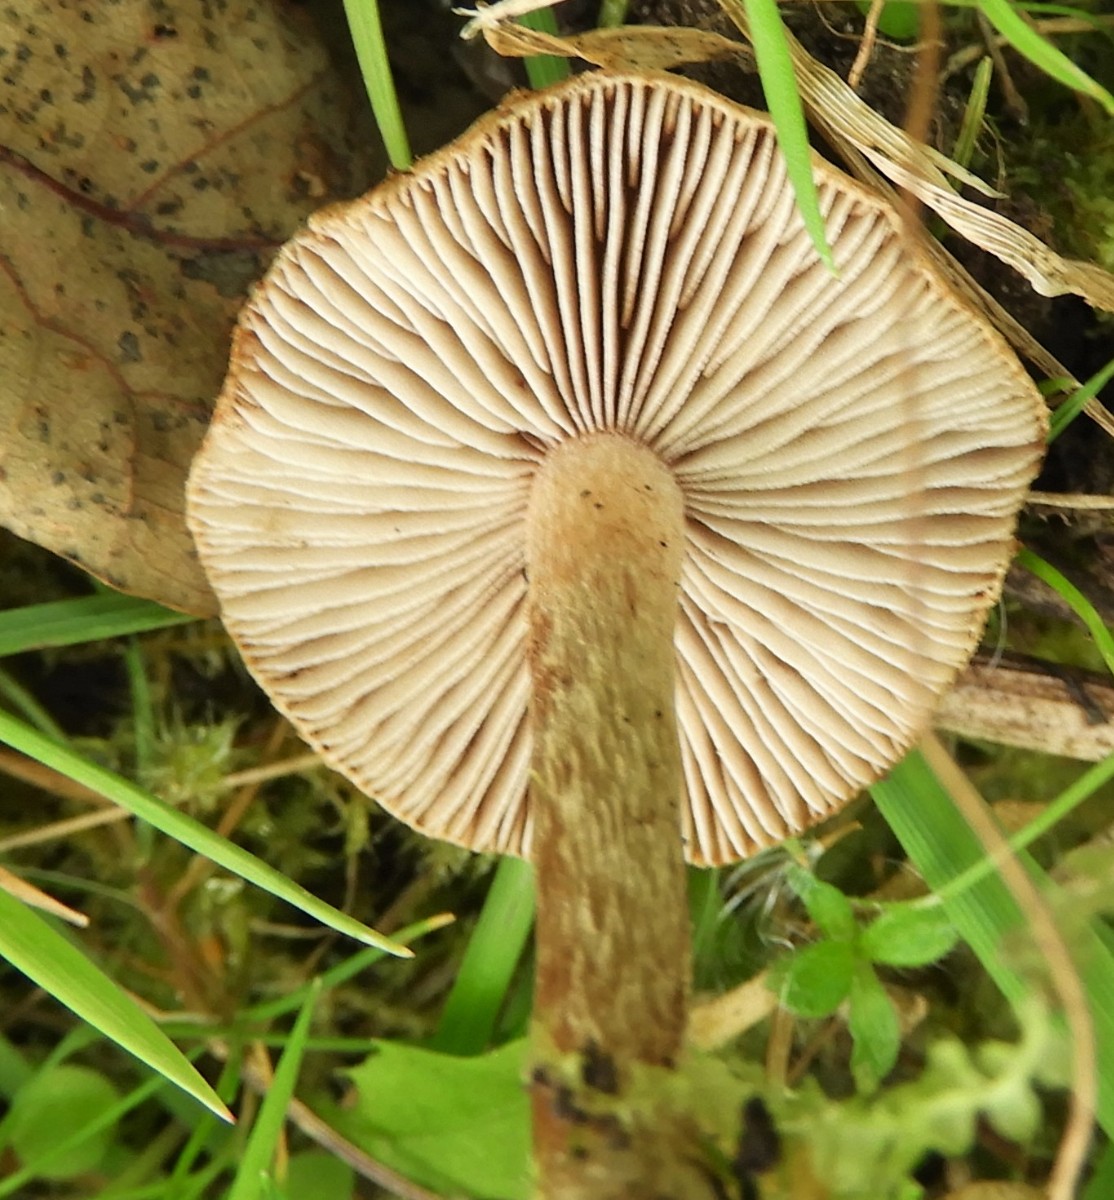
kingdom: Fungi
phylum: Basidiomycota
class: Agaricomycetes
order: Agaricales
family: Inocybaceae
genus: Inocybe
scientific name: Inocybe
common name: trævlhat
